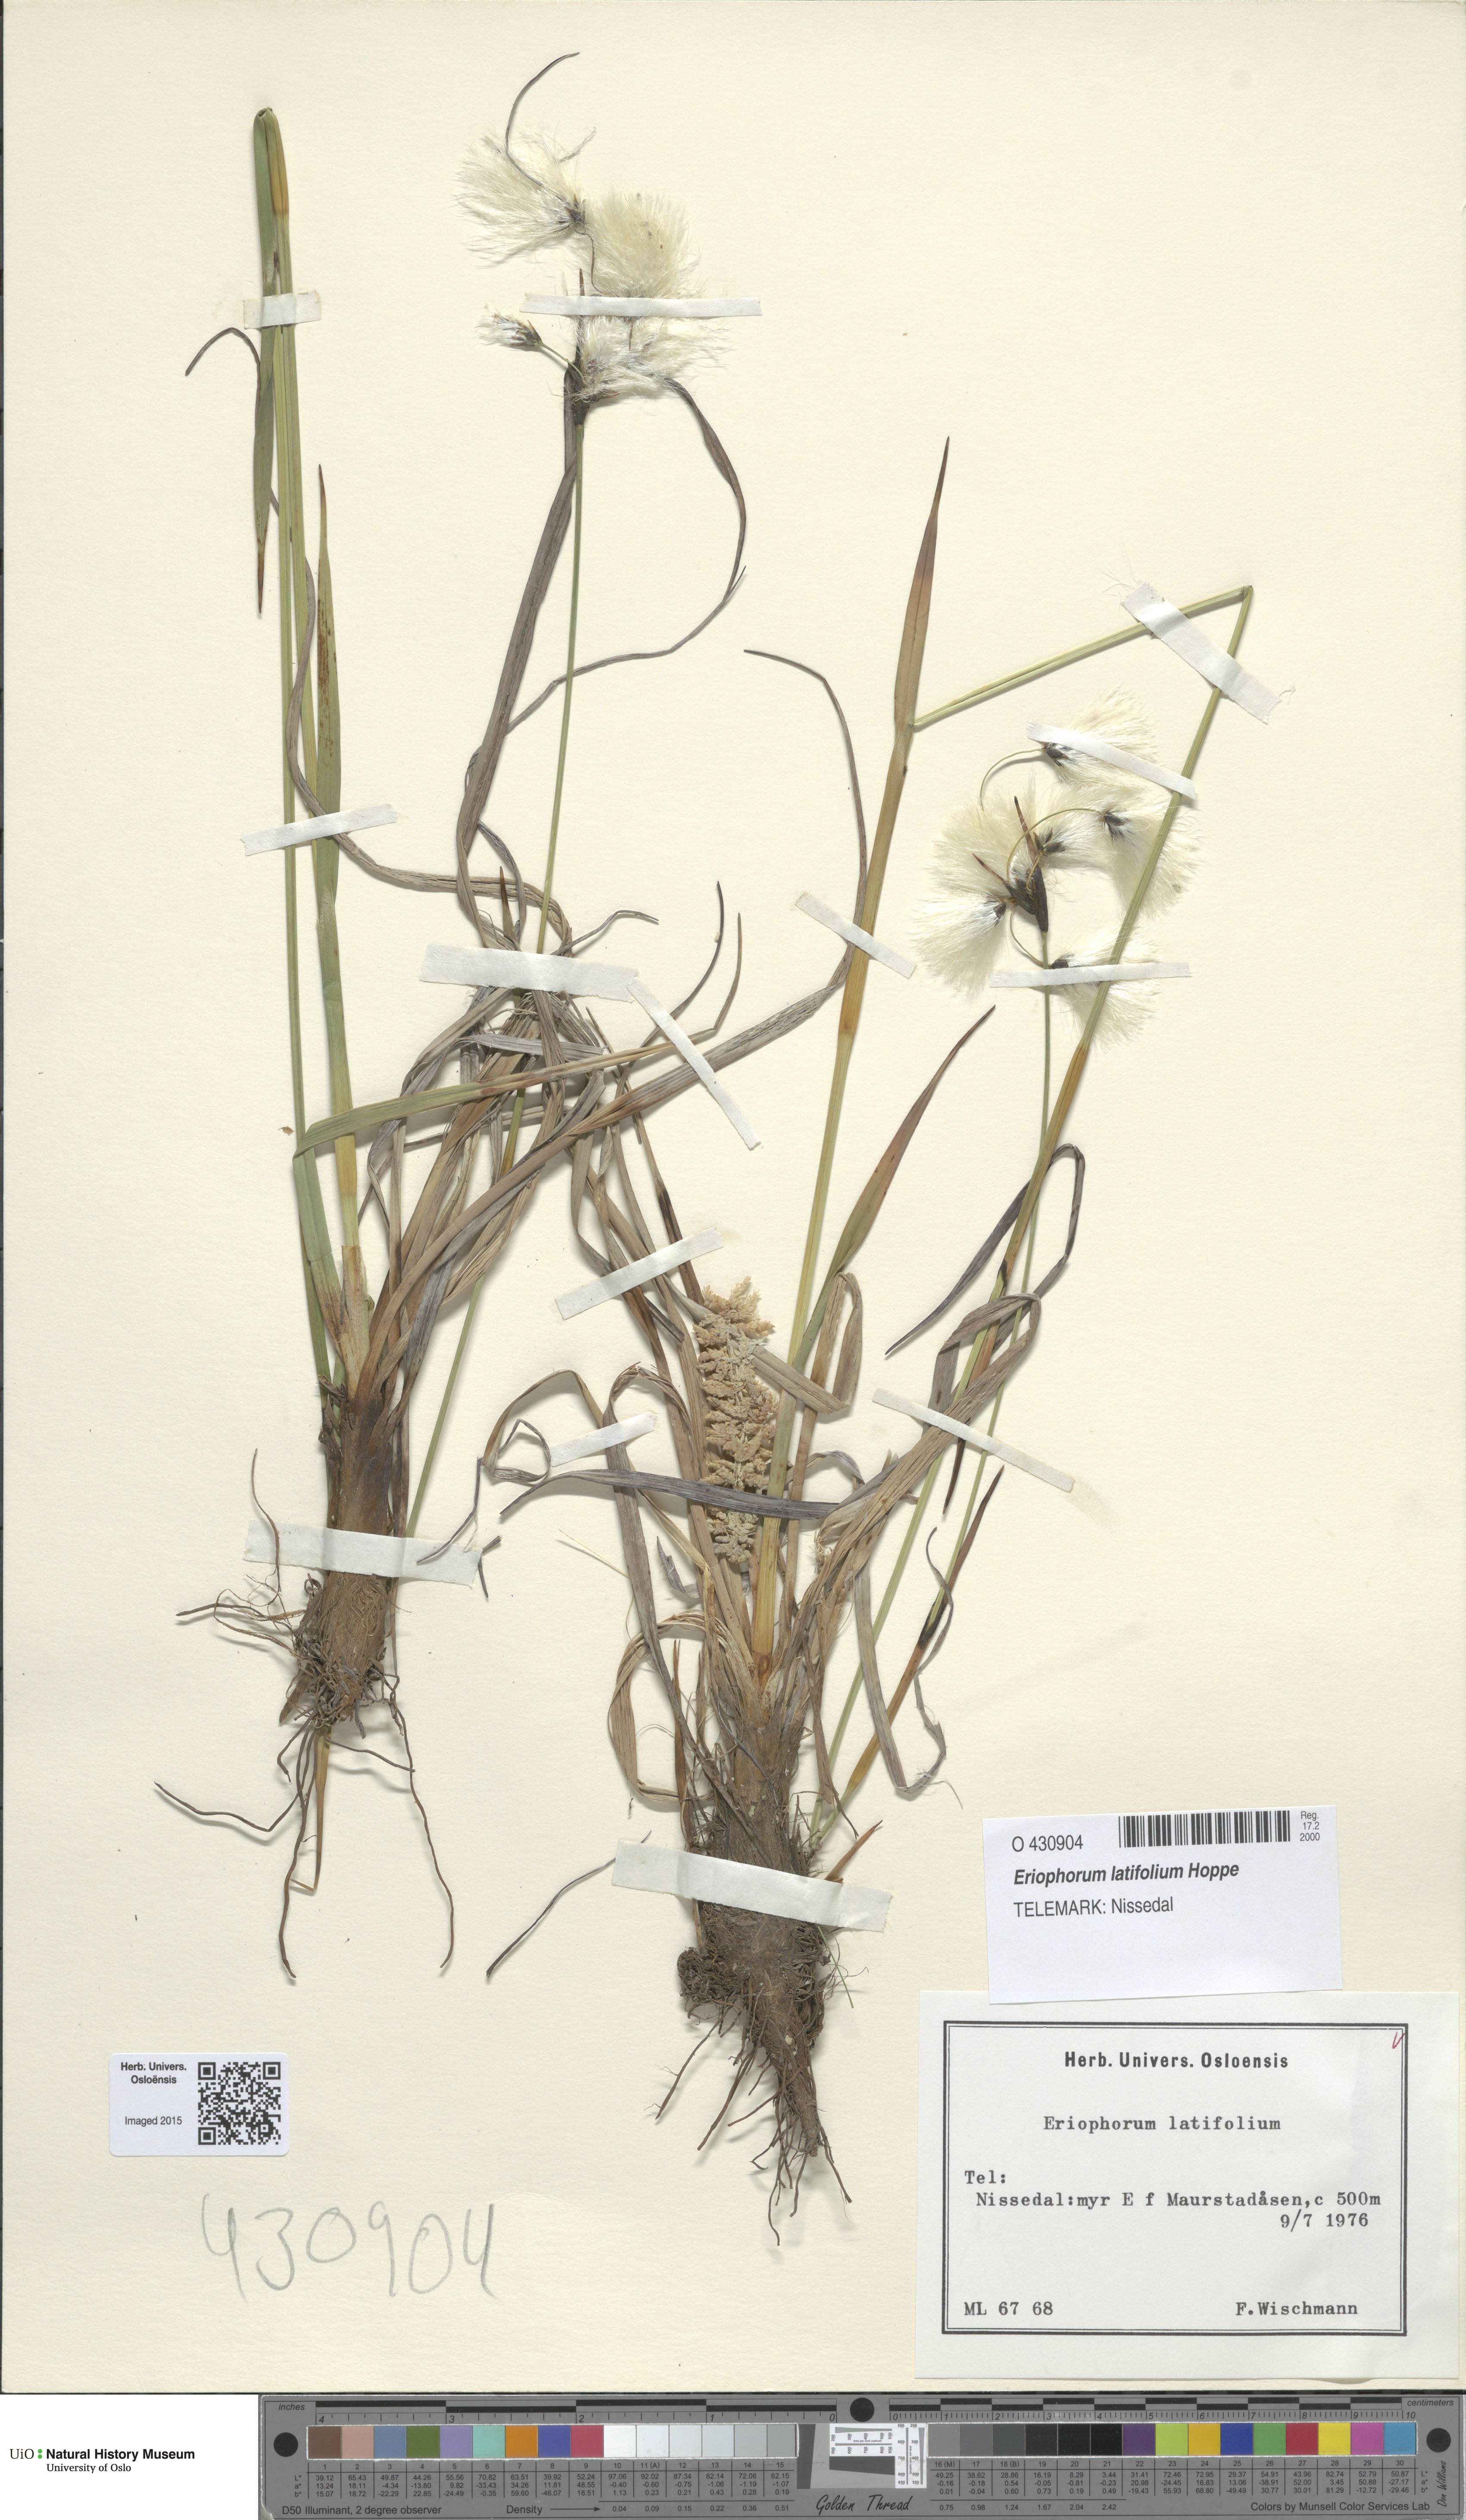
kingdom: Plantae
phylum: Tracheophyta
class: Liliopsida
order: Poales
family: Cyperaceae
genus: Eriophorum
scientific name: Eriophorum latifolium
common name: Broad-leaved cottongrass
